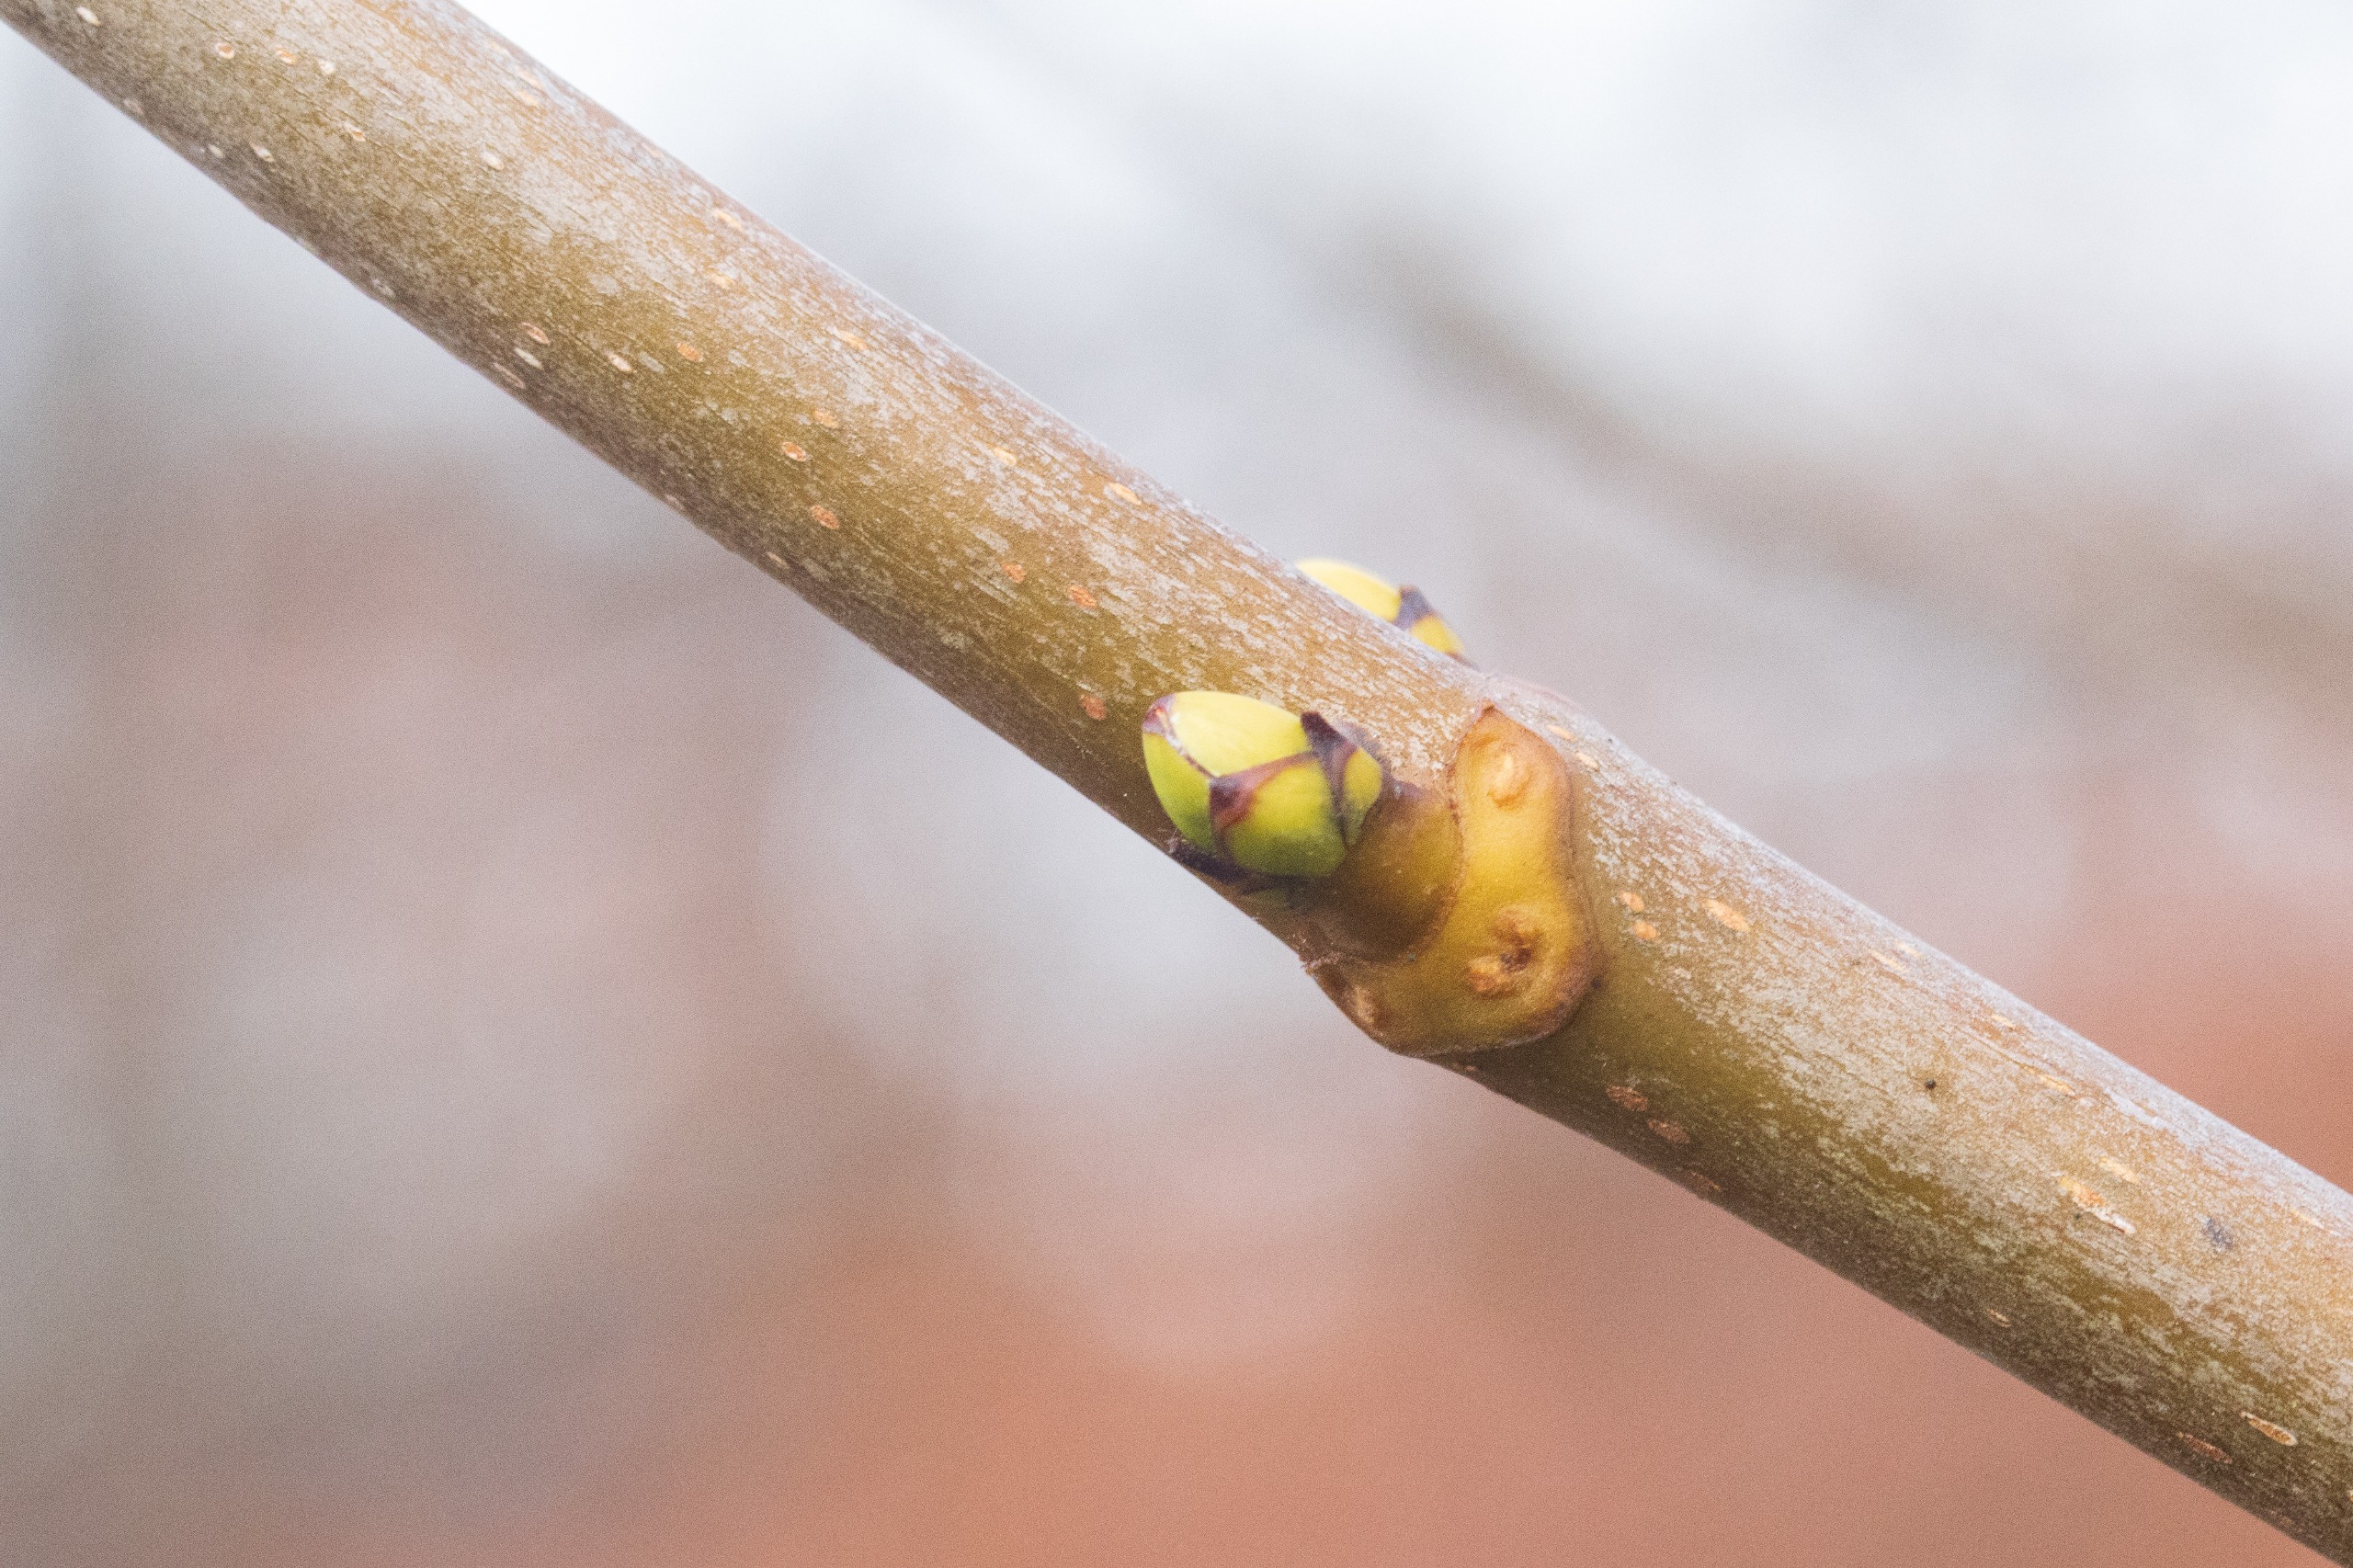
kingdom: Plantae
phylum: Tracheophyta
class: Magnoliopsida
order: Sapindales
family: Sapindaceae
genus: Acer
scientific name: Acer pseudoplatanus
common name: Ahorn
